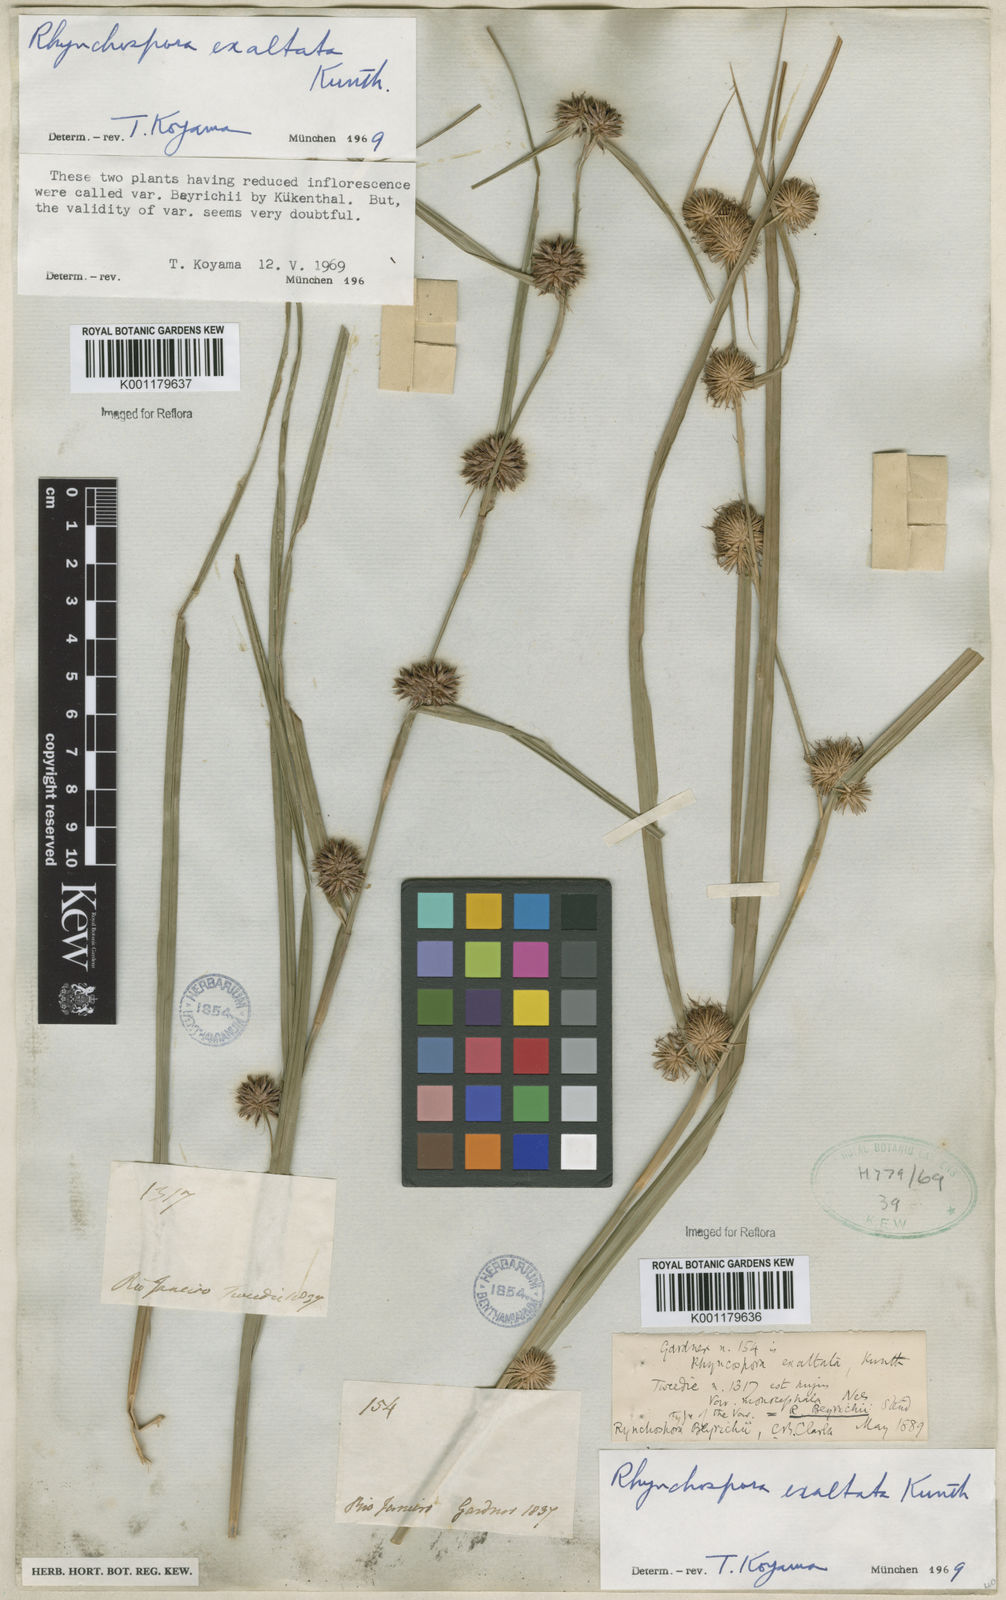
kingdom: Plantae
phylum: Tracheophyta
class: Liliopsida
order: Poales
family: Cyperaceae
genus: Rhynchospora
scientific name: Rhynchospora exaltata
